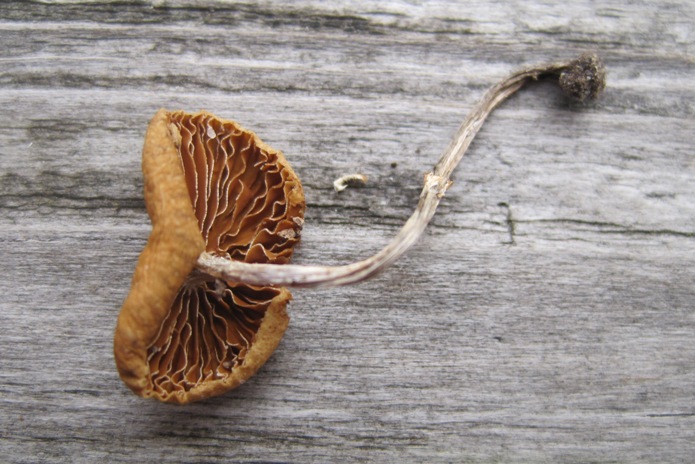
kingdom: Fungi
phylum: Basidiomycota
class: Agaricomycetes
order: Agaricales
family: Bolbitiaceae
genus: Conocybe
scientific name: Conocybe arrhenii
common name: ring-dansehat
